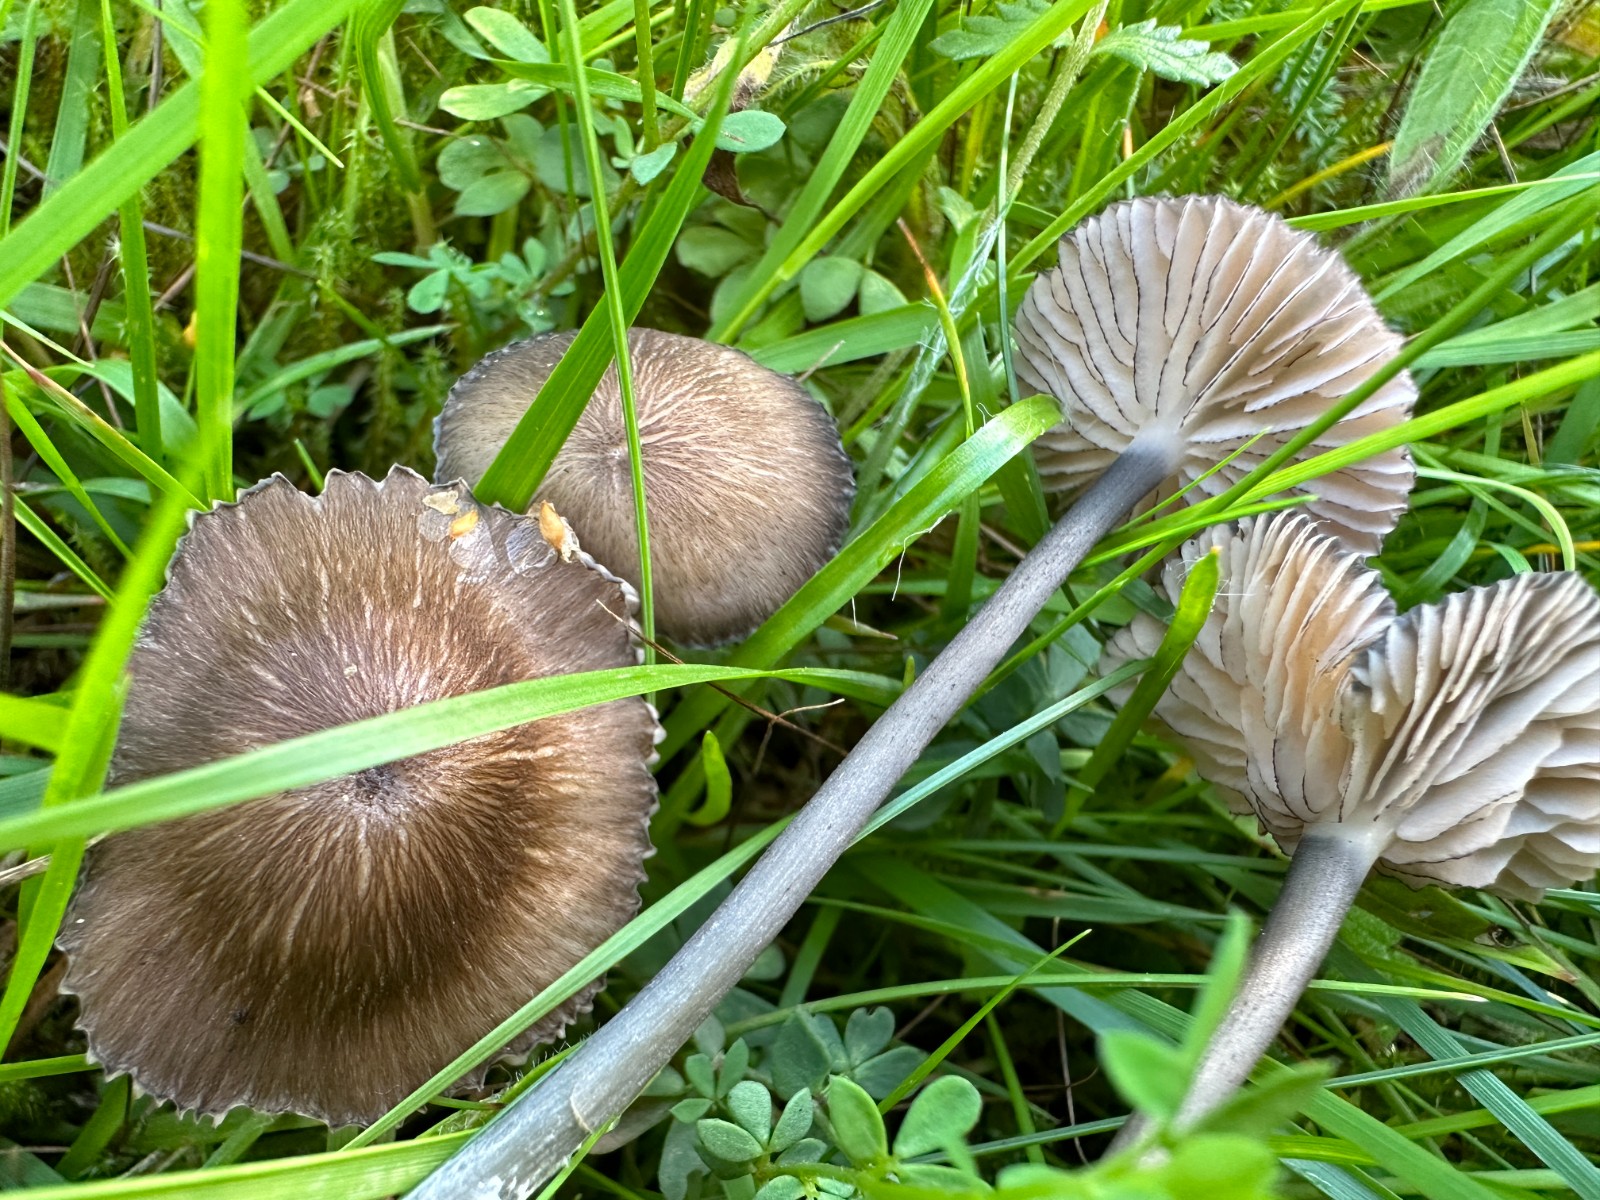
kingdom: Fungi
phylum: Basidiomycota
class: Agaricomycetes
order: Agaricales
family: Entolomataceae
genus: Entoloma
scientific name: Entoloma
